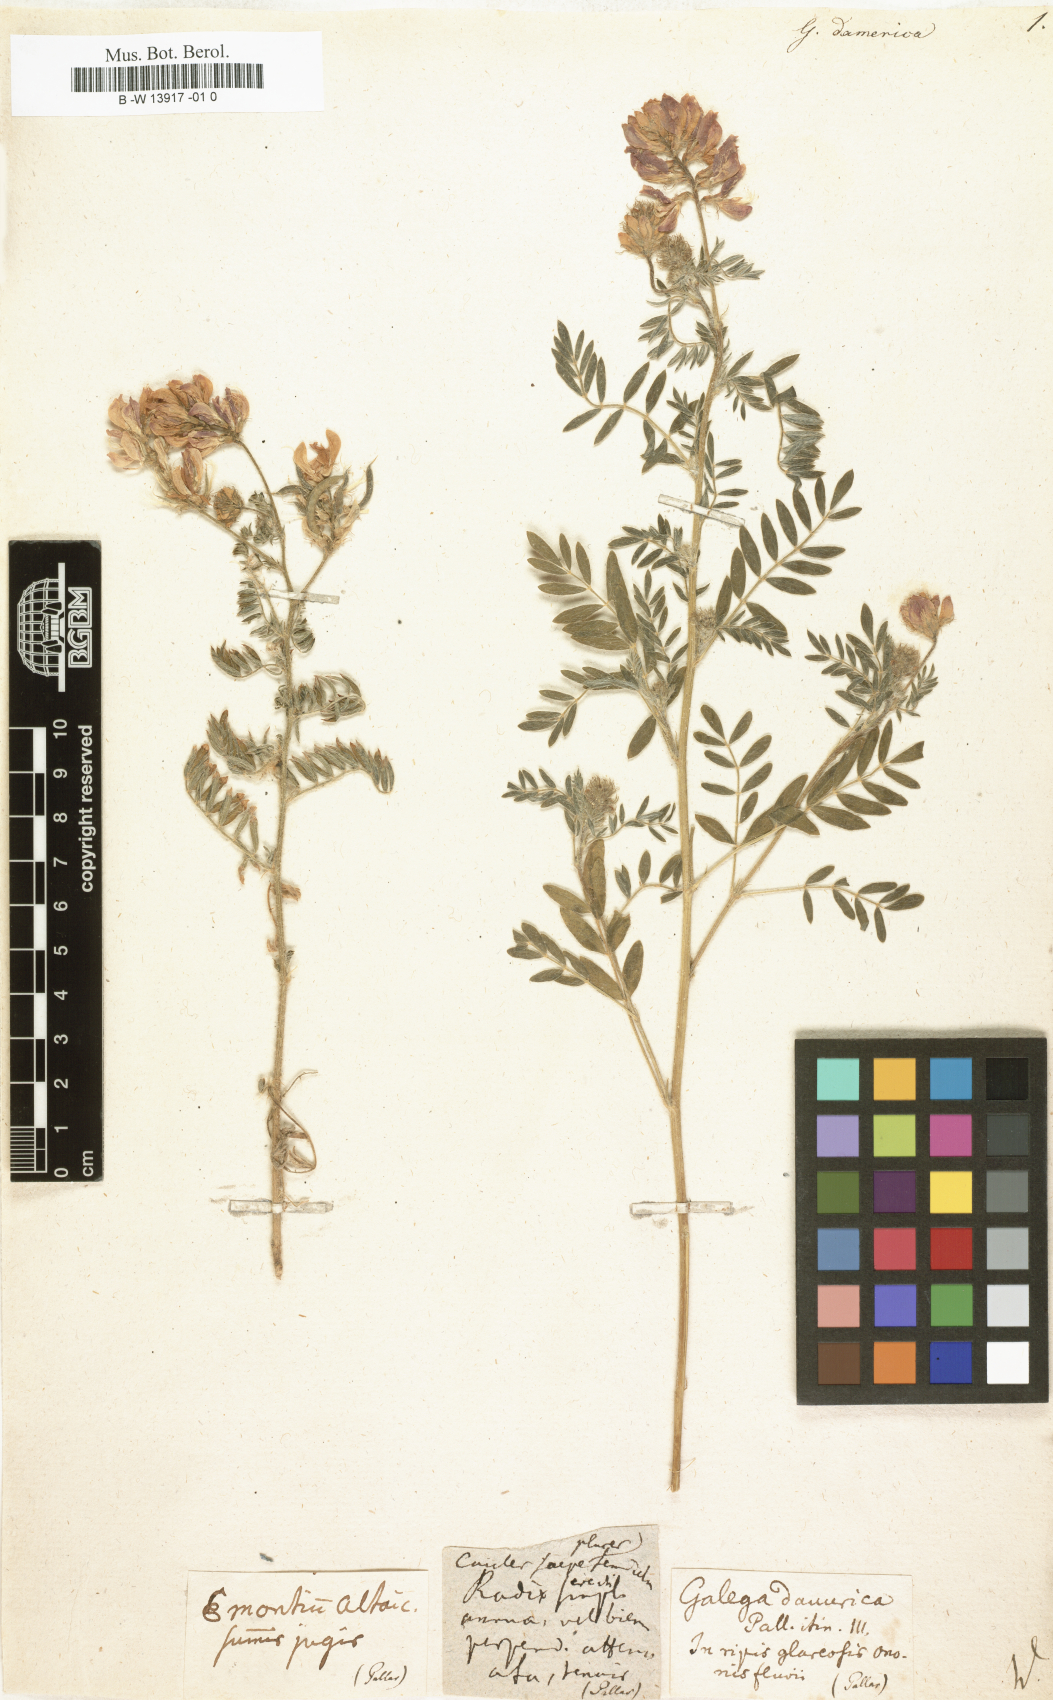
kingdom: Plantae
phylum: Tracheophyta
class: Magnoliopsida
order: Fabales
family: Fabaceae
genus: Astragalus
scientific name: Astragalus davuricus
